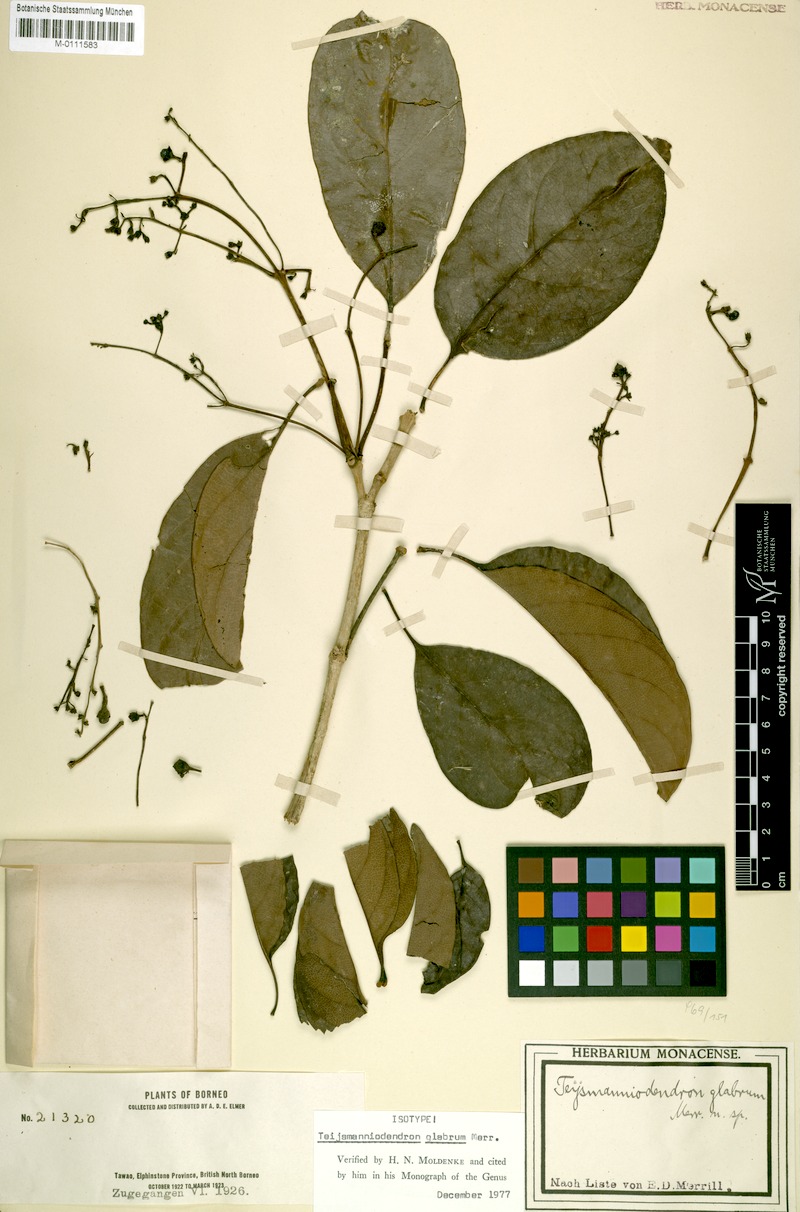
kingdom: Plantae
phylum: Tracheophyta
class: Magnoliopsida
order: Lamiales
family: Lamiaceae
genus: Teijsmanniodendron
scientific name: Teijsmanniodendron glabrum
